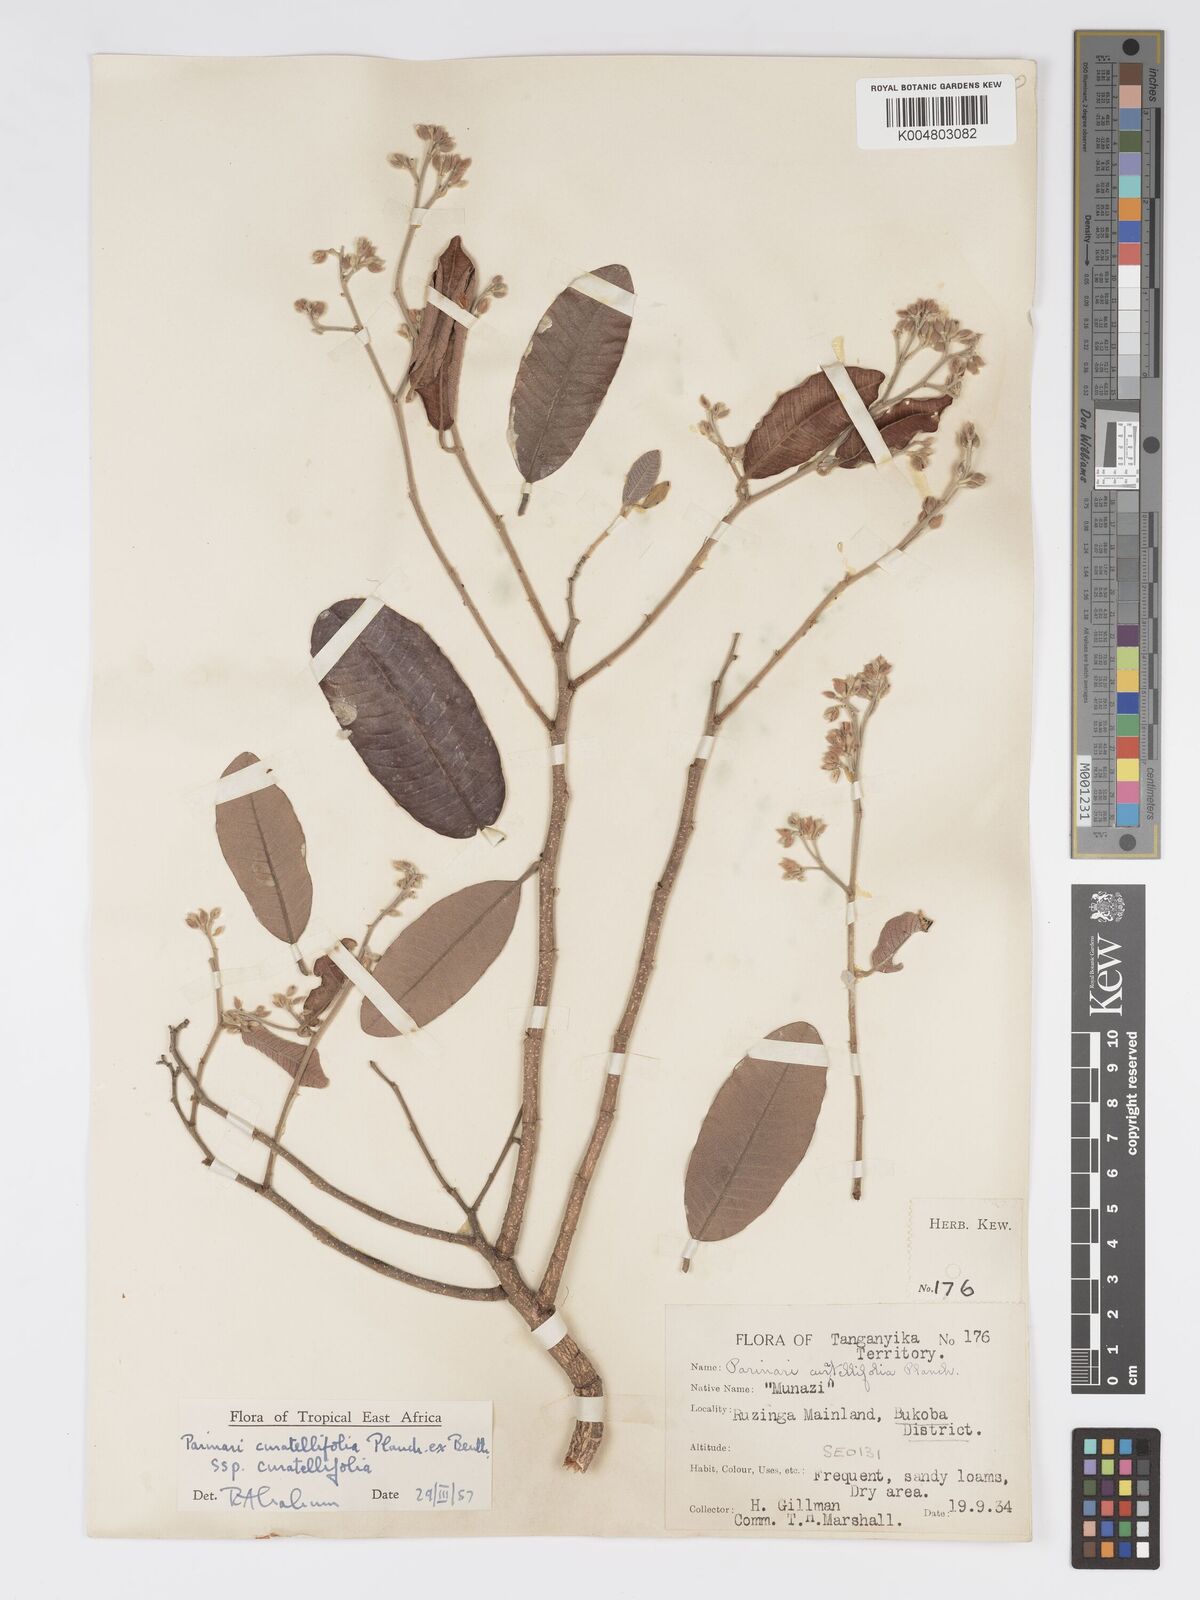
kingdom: Plantae
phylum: Tracheophyta
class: Magnoliopsida
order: Malpighiales
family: Chrysobalanaceae
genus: Parinari
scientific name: Parinari curatellifolia
